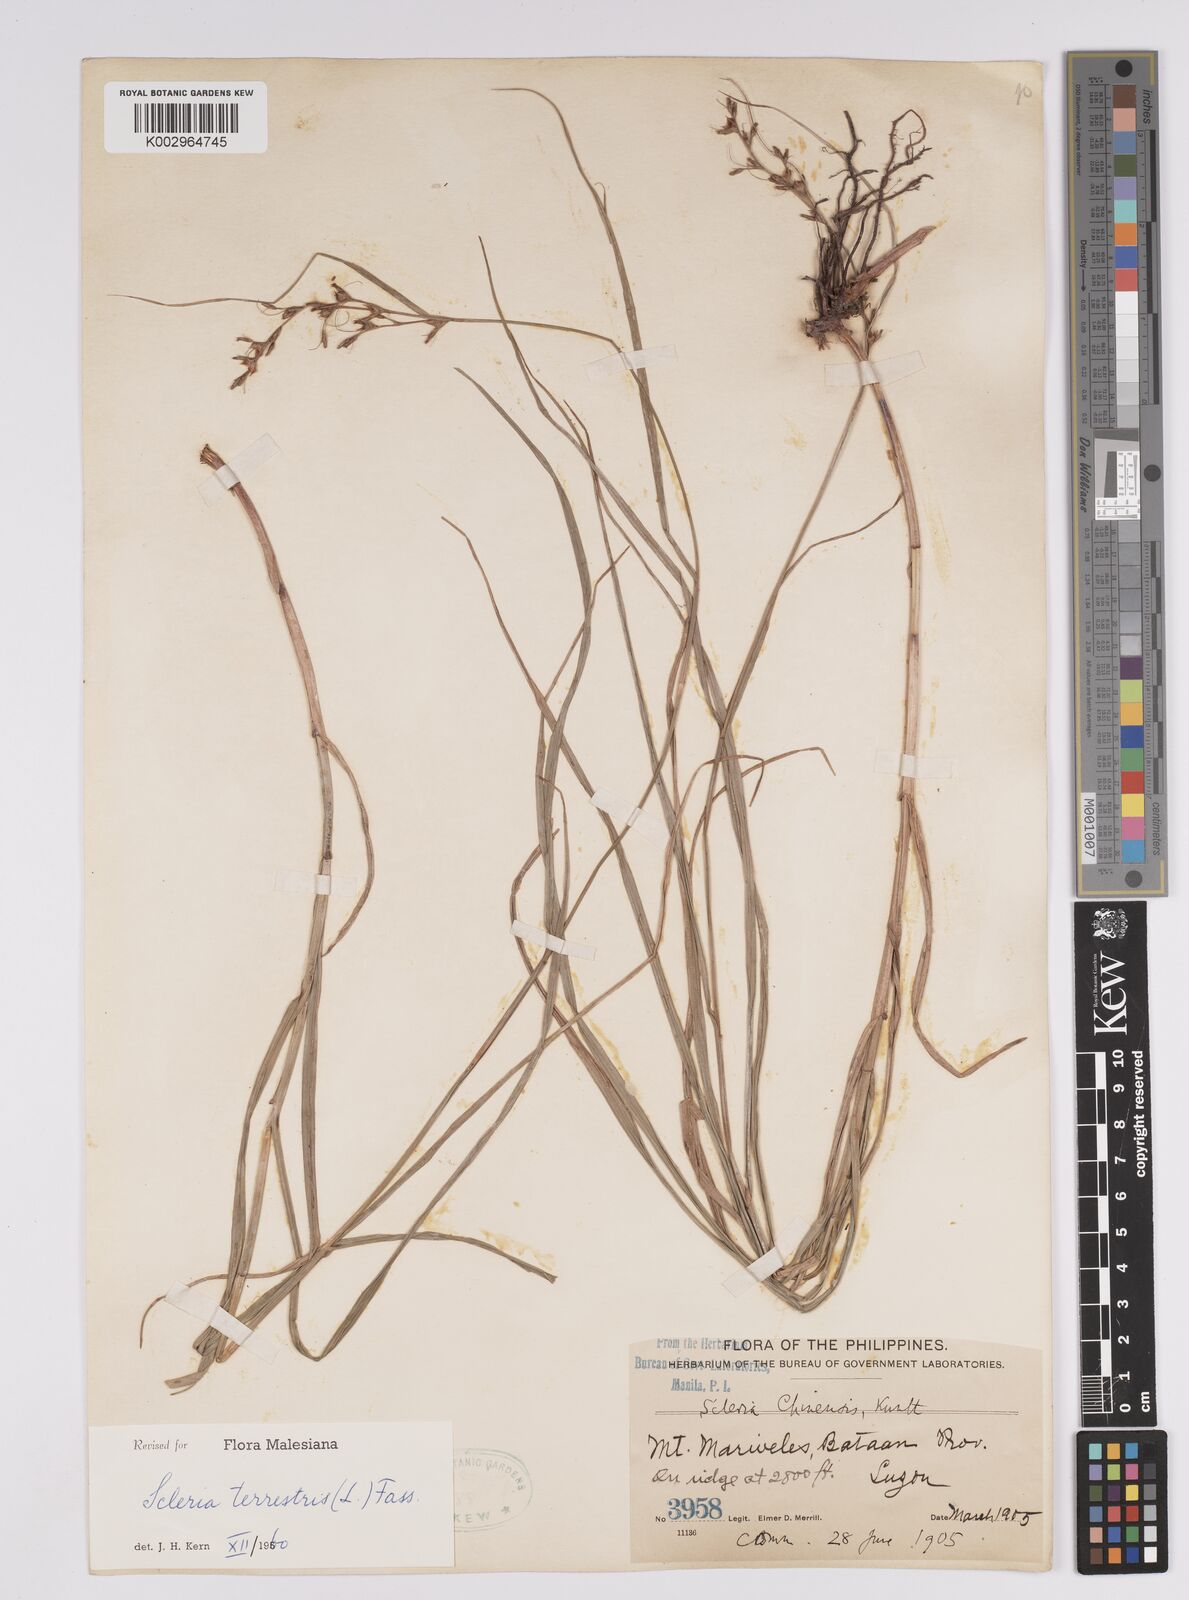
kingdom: Plantae
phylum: Tracheophyta
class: Liliopsida
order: Poales
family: Cyperaceae
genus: Scleria
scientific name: Scleria terrestris
